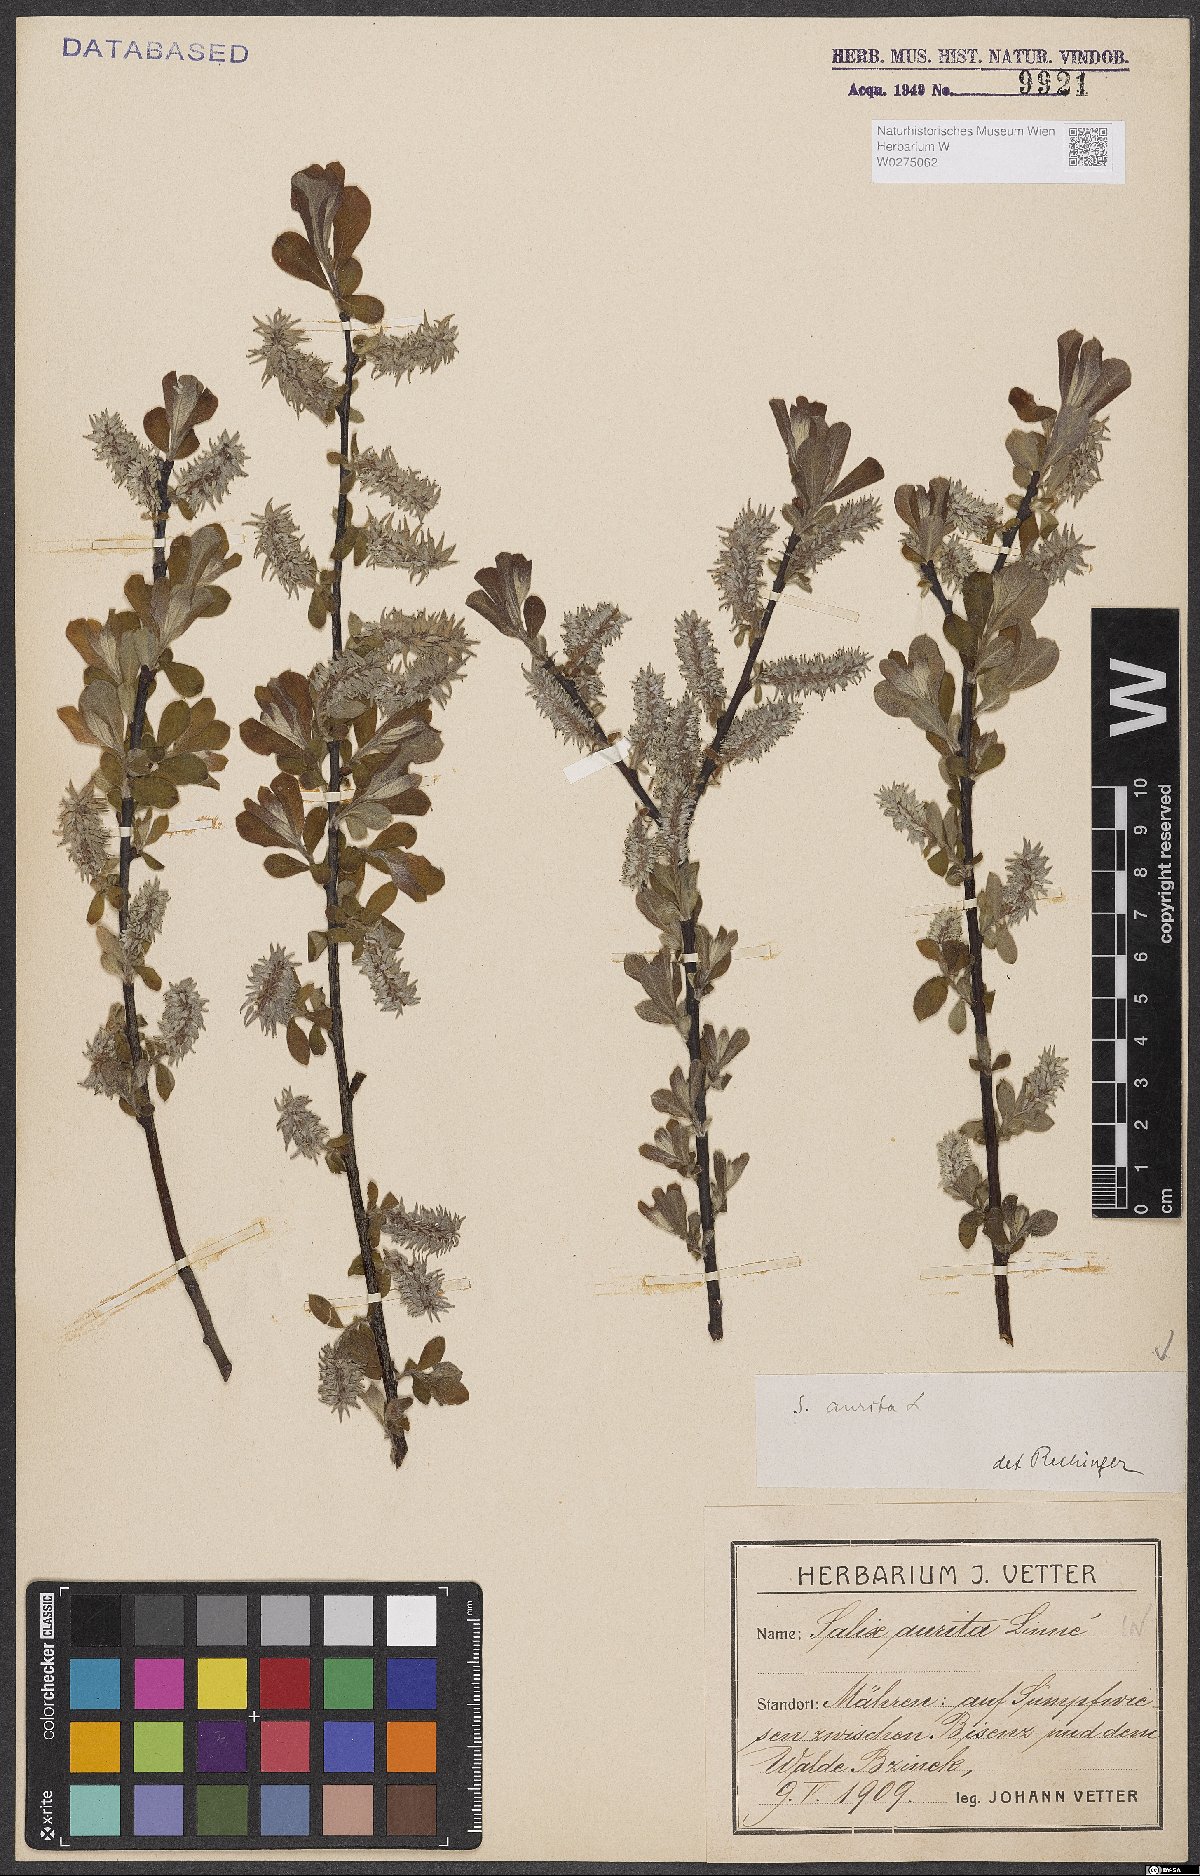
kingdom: Plantae
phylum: Tracheophyta
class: Magnoliopsida
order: Malpighiales
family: Salicaceae
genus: Salix
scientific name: Salix aurita
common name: Eared willow
